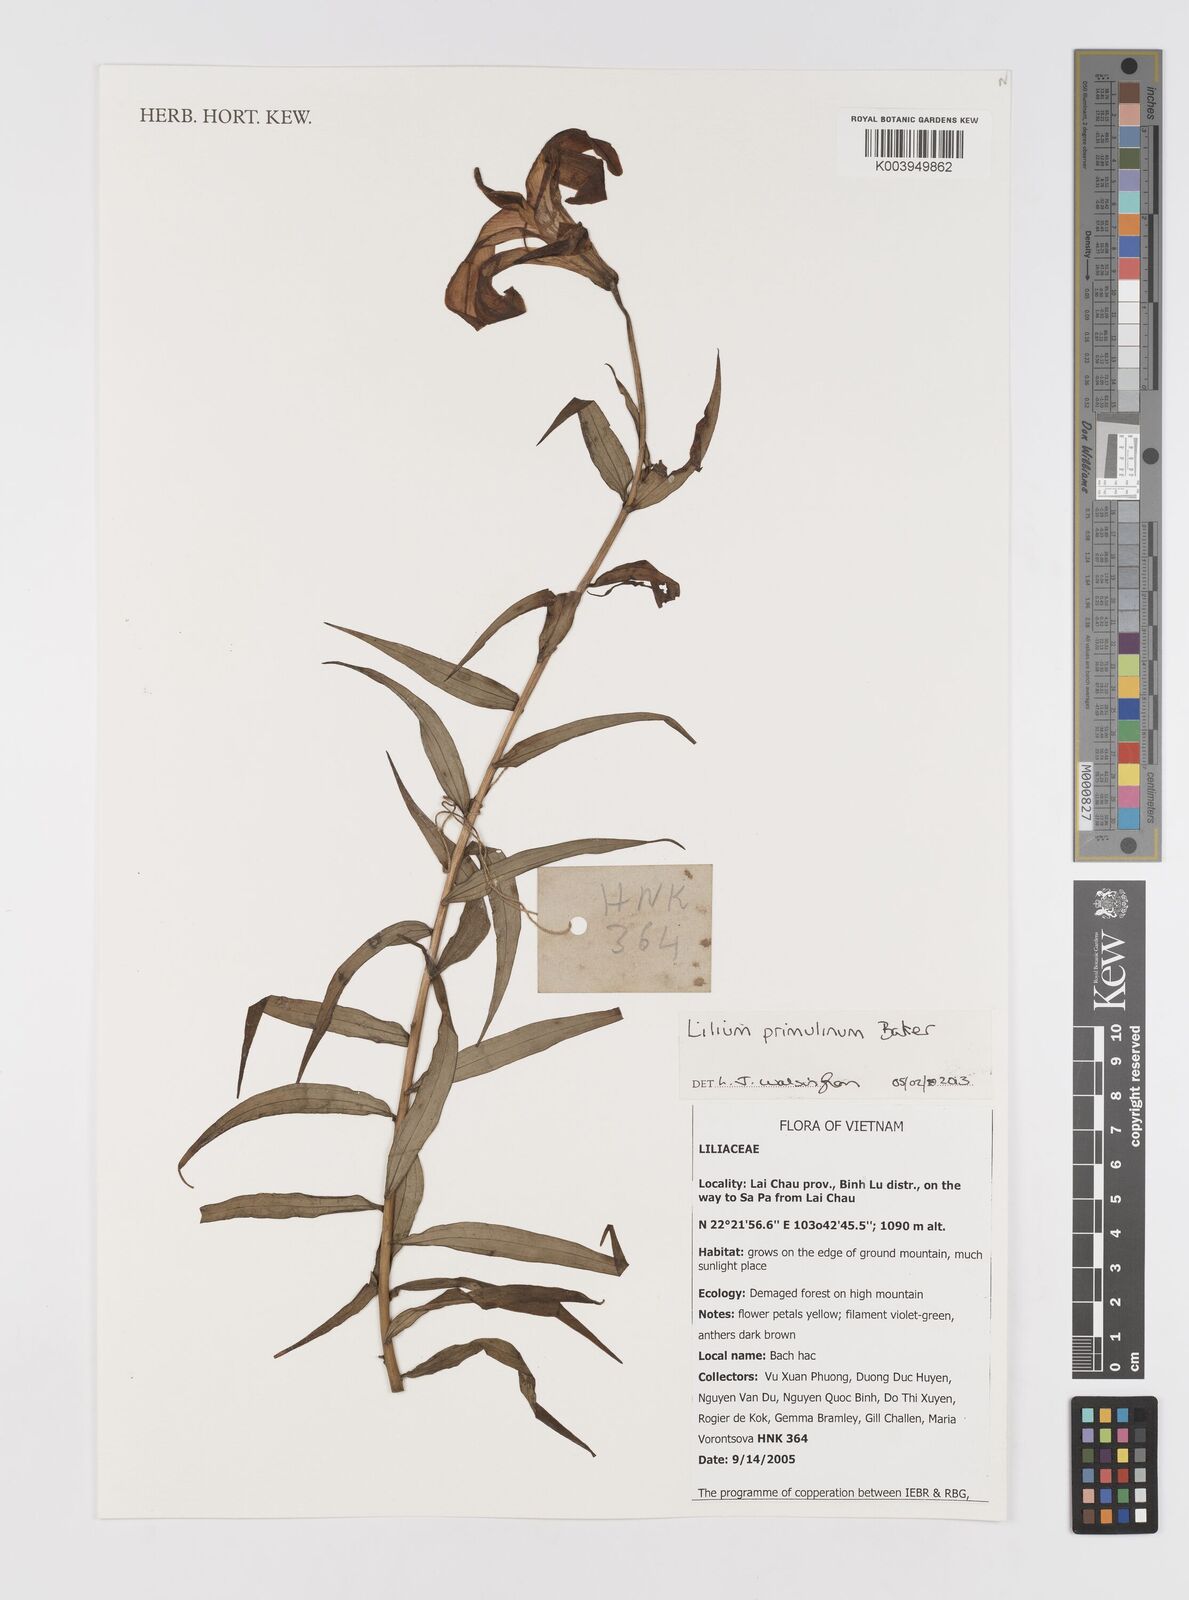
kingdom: Plantae
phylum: Tracheophyta
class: Liliopsida
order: Liliales
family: Liliaceae
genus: Lilium
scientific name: Lilium primulinum
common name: Ochre lily
